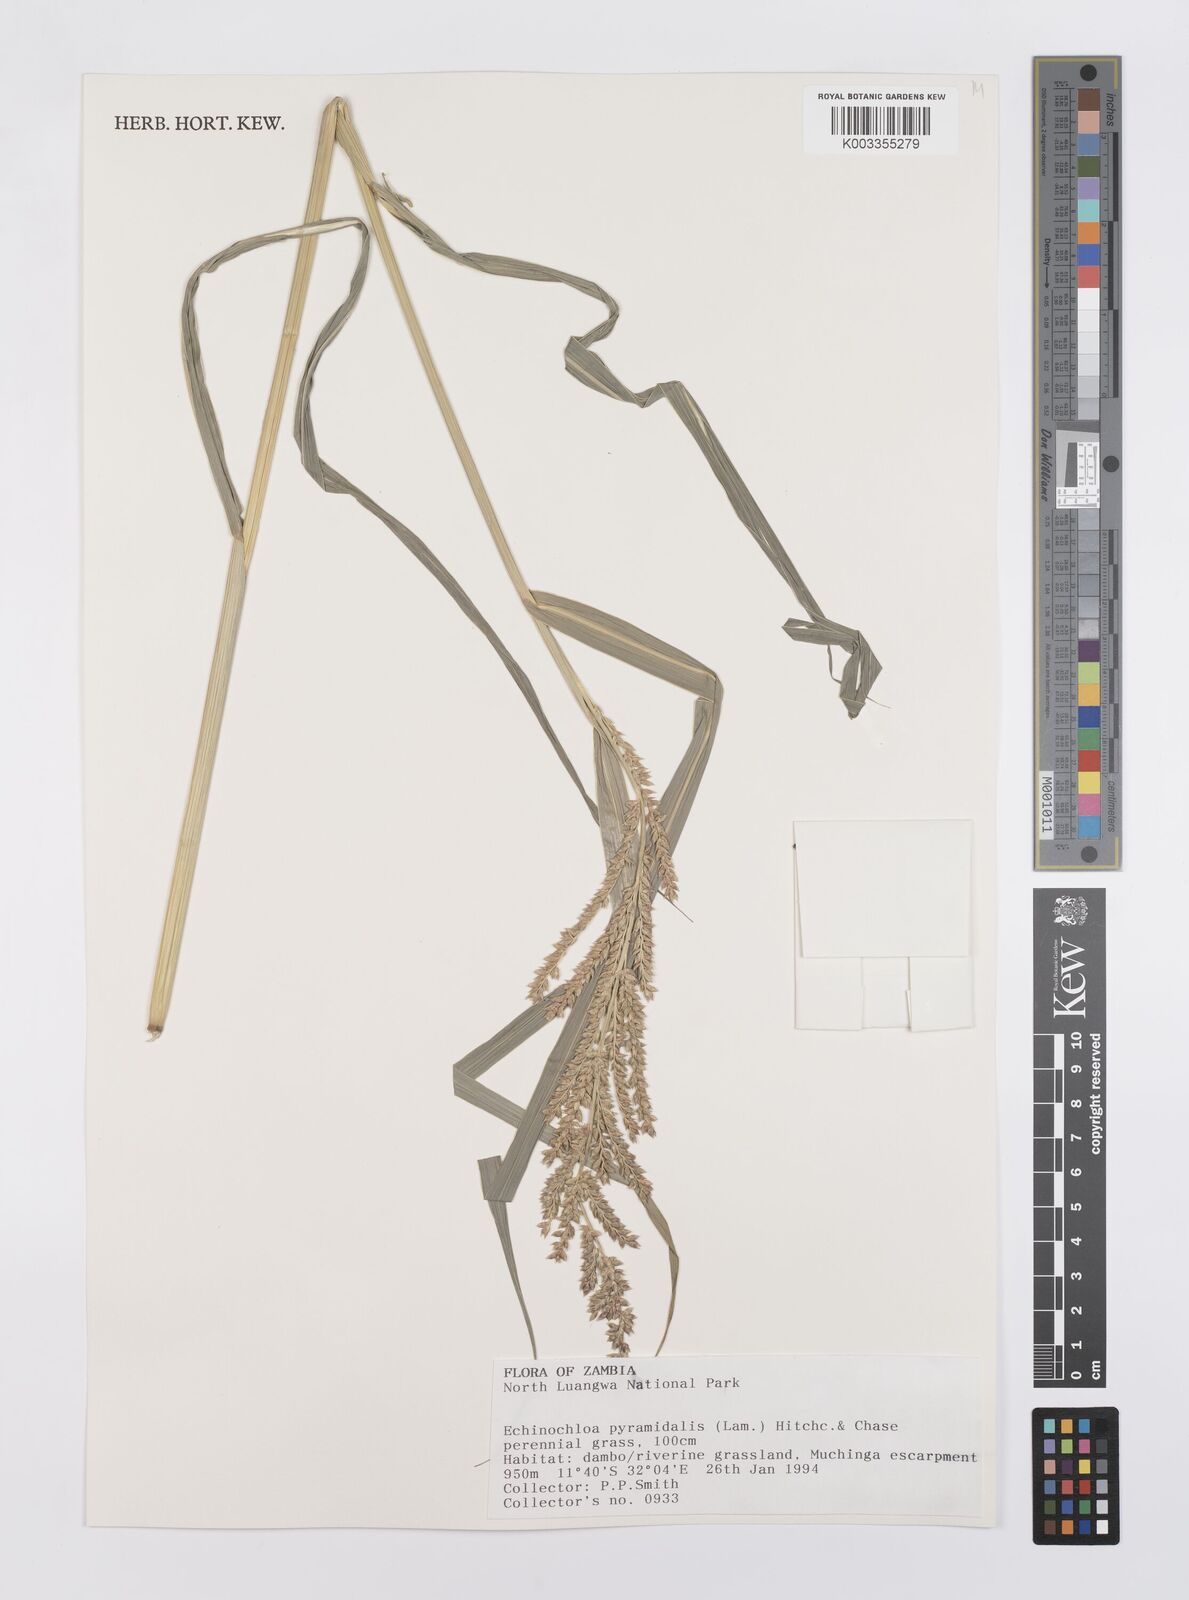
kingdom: Plantae
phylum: Tracheophyta
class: Liliopsida
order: Poales
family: Poaceae
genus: Echinochloa
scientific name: Echinochloa pyramidalis
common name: Antelope grass
